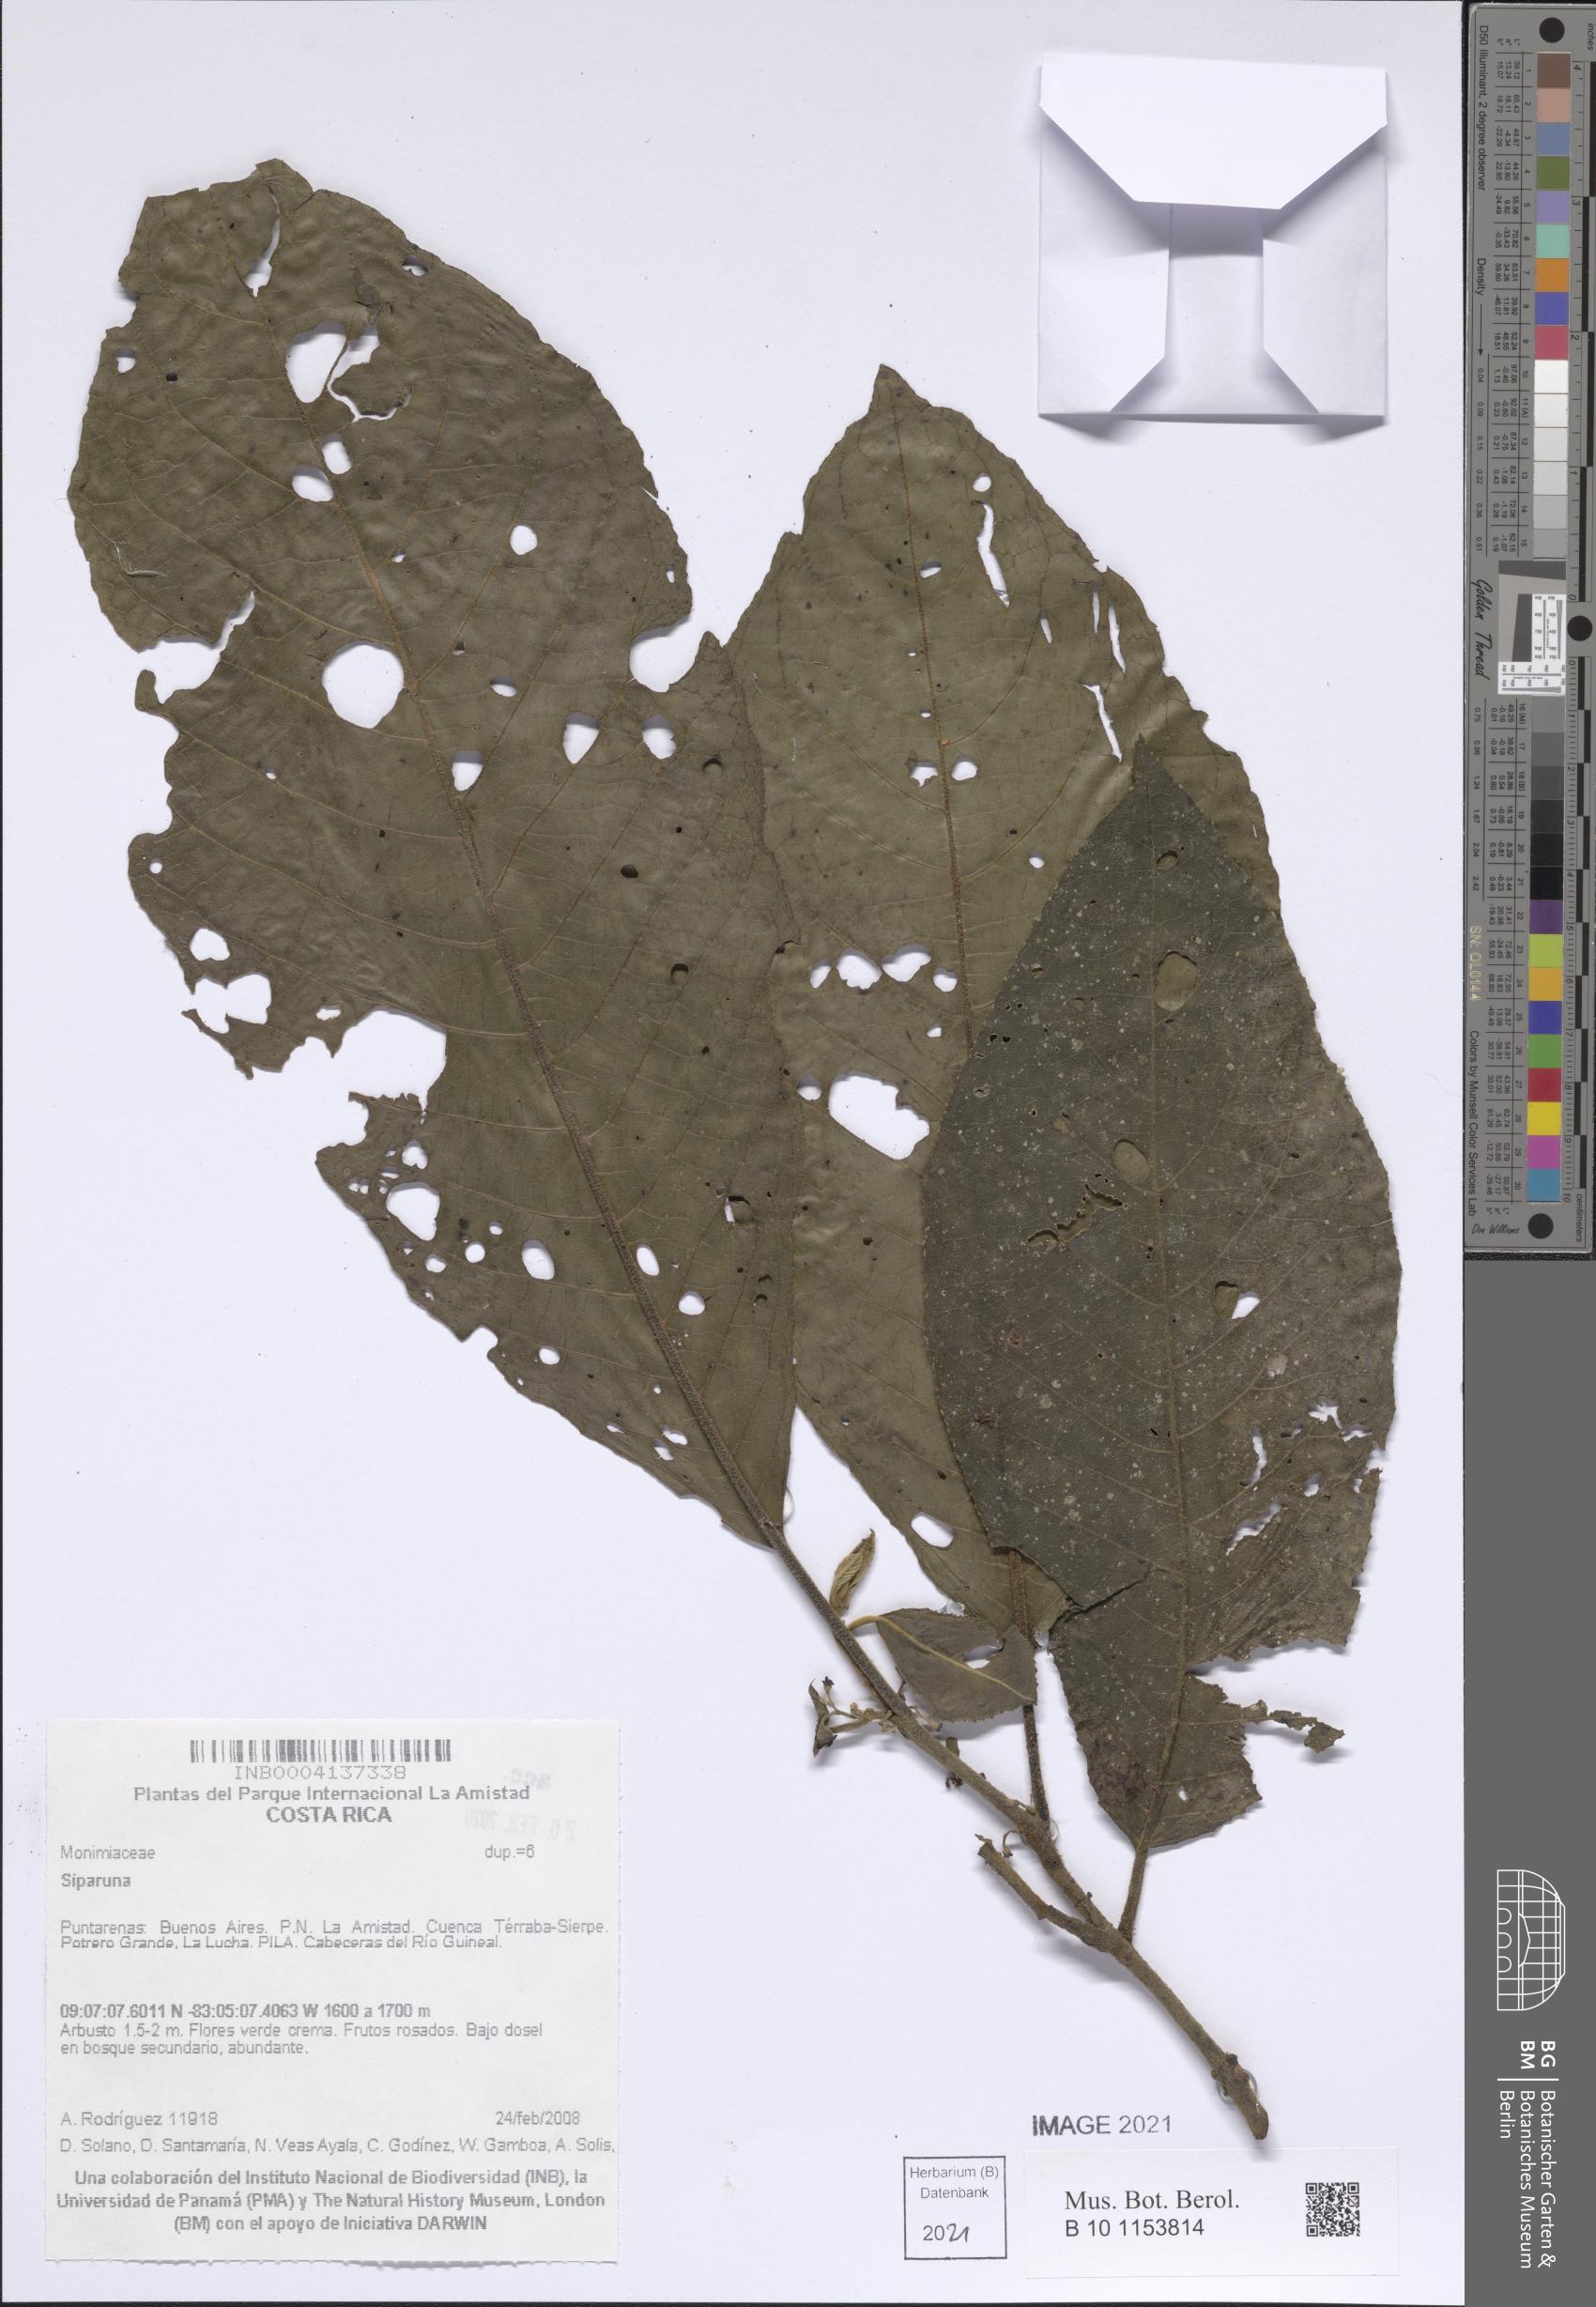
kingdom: Plantae
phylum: Tracheophyta
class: Magnoliopsida
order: Laurales
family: Siparunaceae
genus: Siparuna
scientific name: Siparuna
